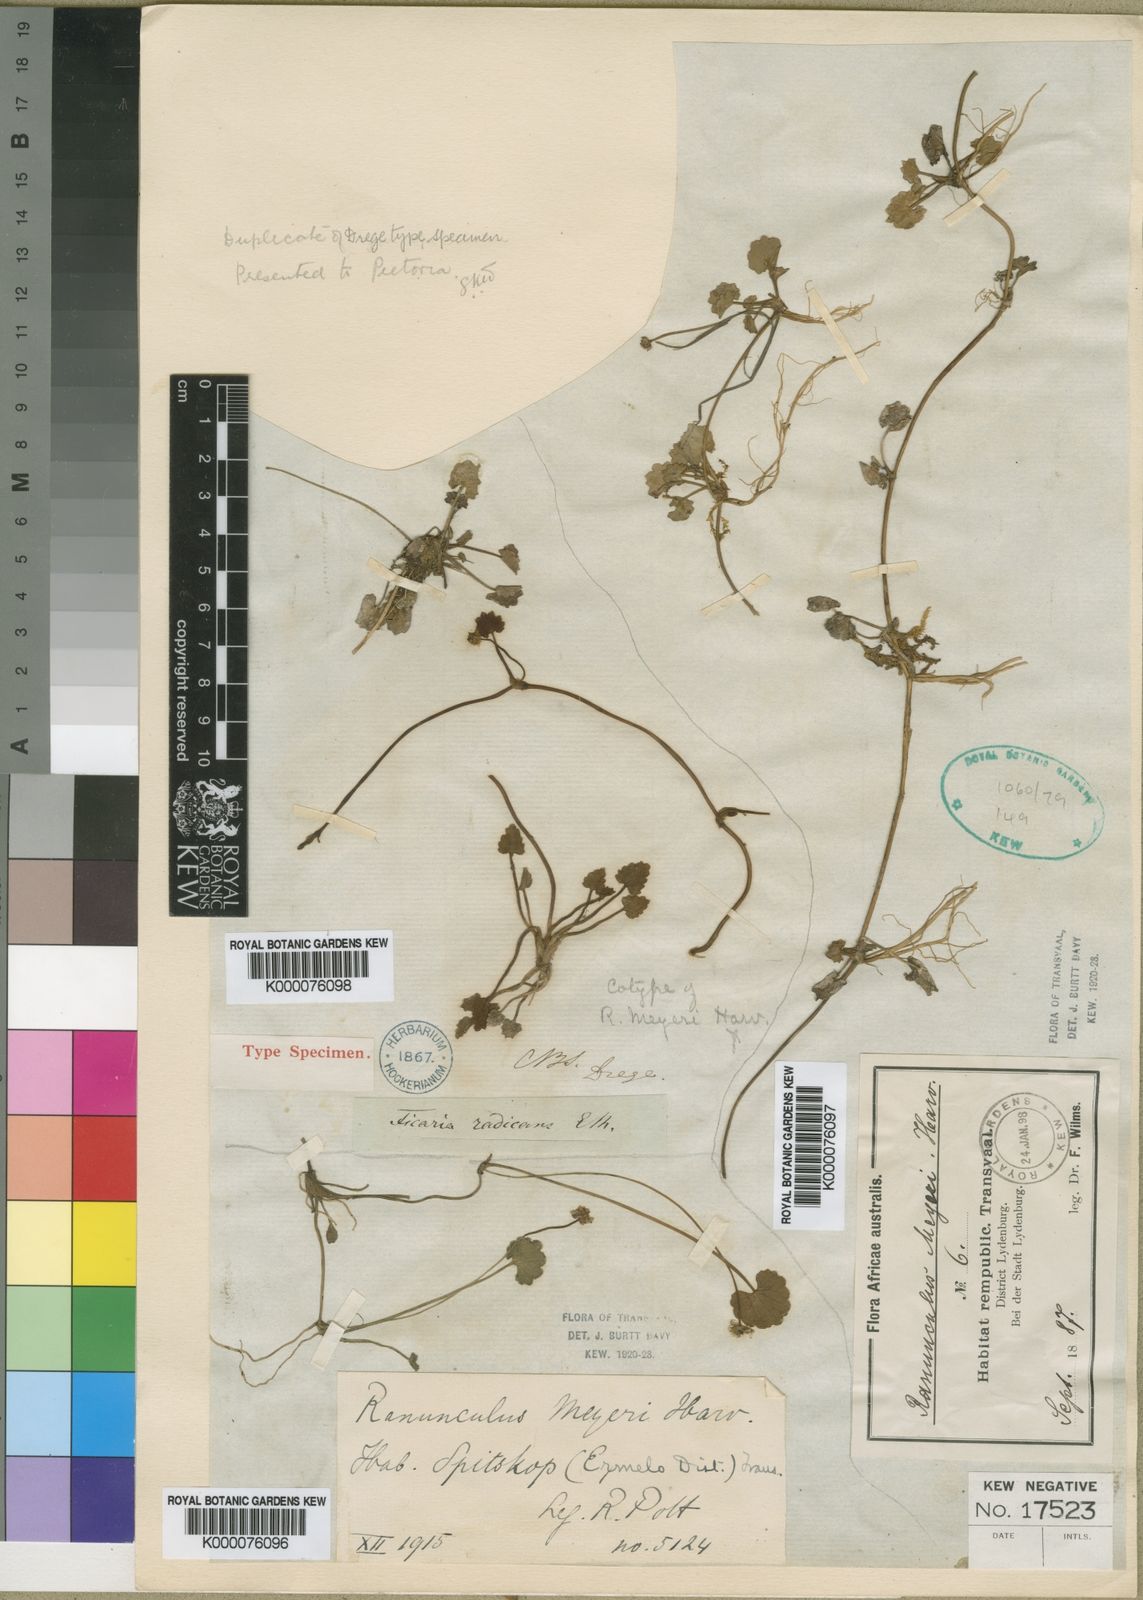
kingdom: Plantae
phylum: Tracheophyta
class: Magnoliopsida
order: Ranunculales
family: Ranunculaceae
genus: Ranunculus
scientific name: Ranunculus dregei
